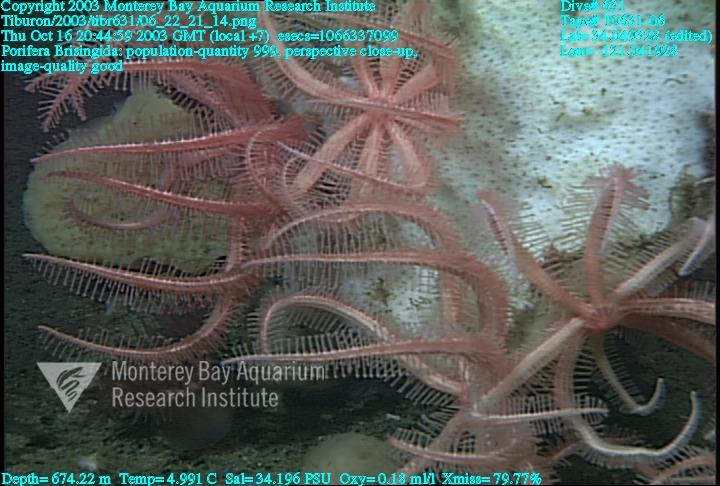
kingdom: Animalia
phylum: Porifera
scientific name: Porifera
